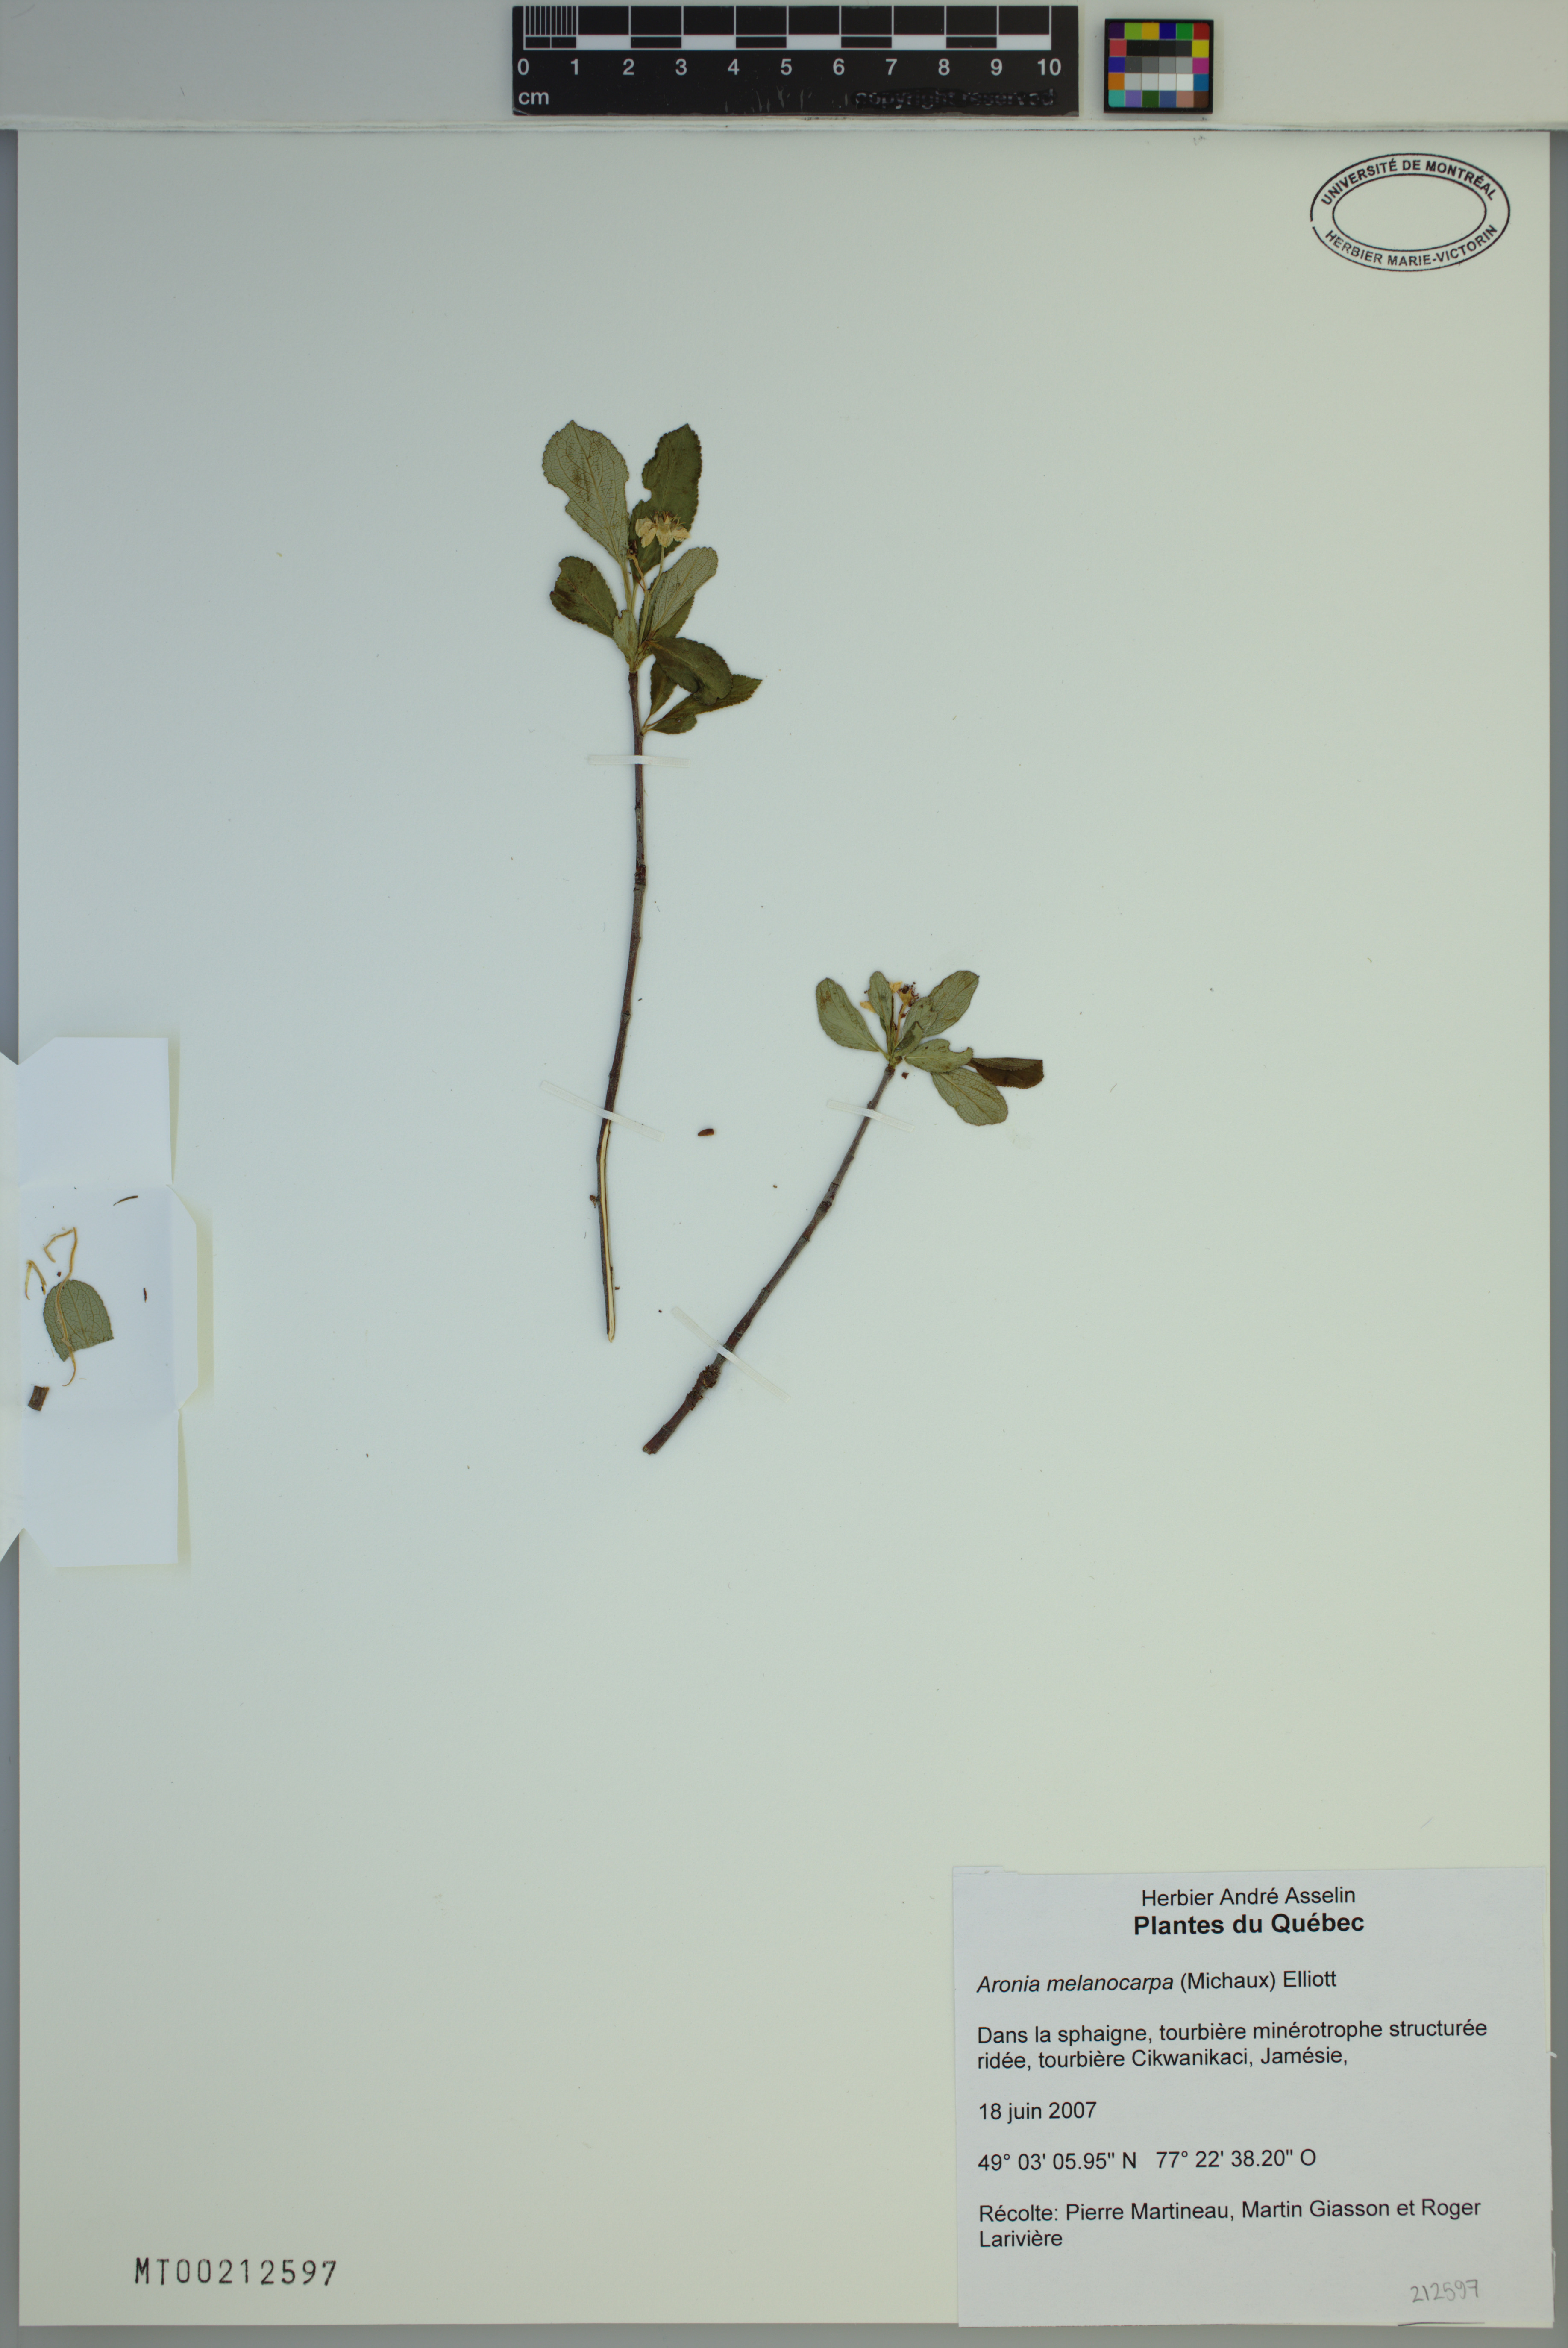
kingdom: Plantae
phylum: Tracheophyta
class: Magnoliopsida
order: Rosales
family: Rosaceae
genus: Aronia
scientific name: Aronia melanocarpa
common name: Black chokeberry
